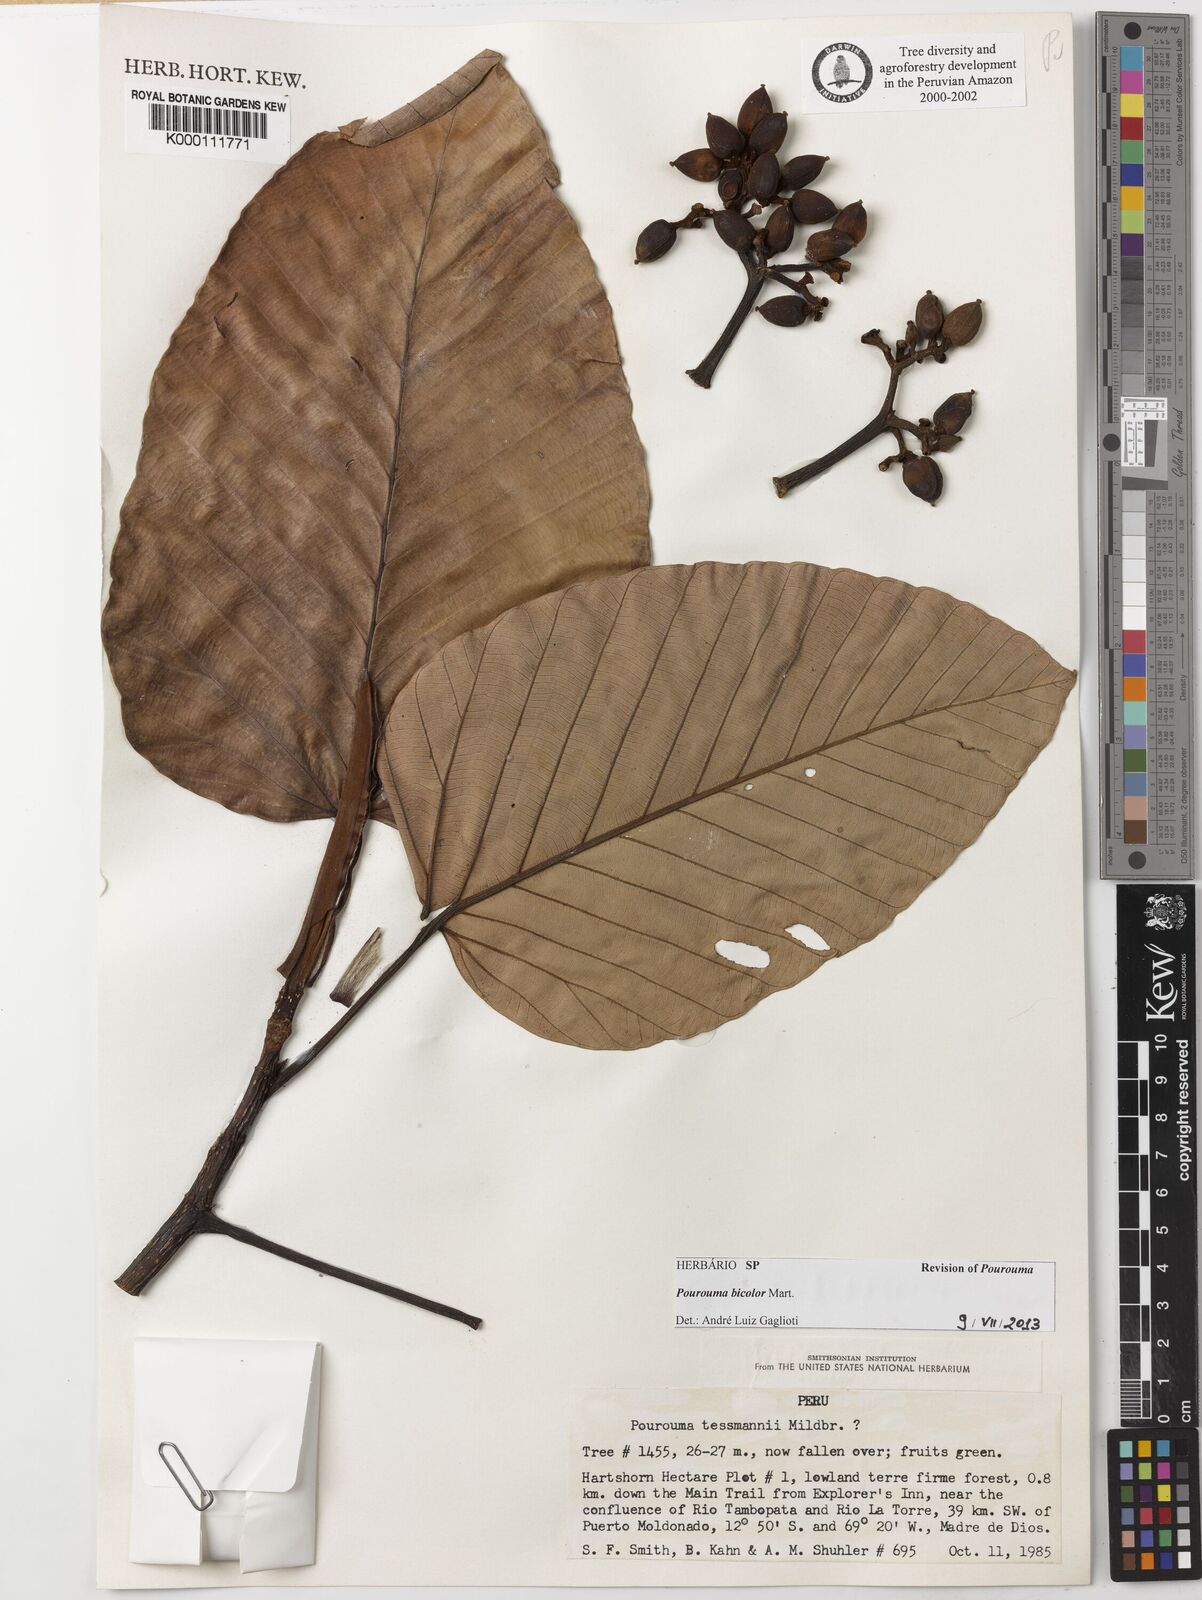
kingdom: Plantae
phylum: Tracheophyta
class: Magnoliopsida
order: Rosales
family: Urticaceae
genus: Pourouma
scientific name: Pourouma bicolor
